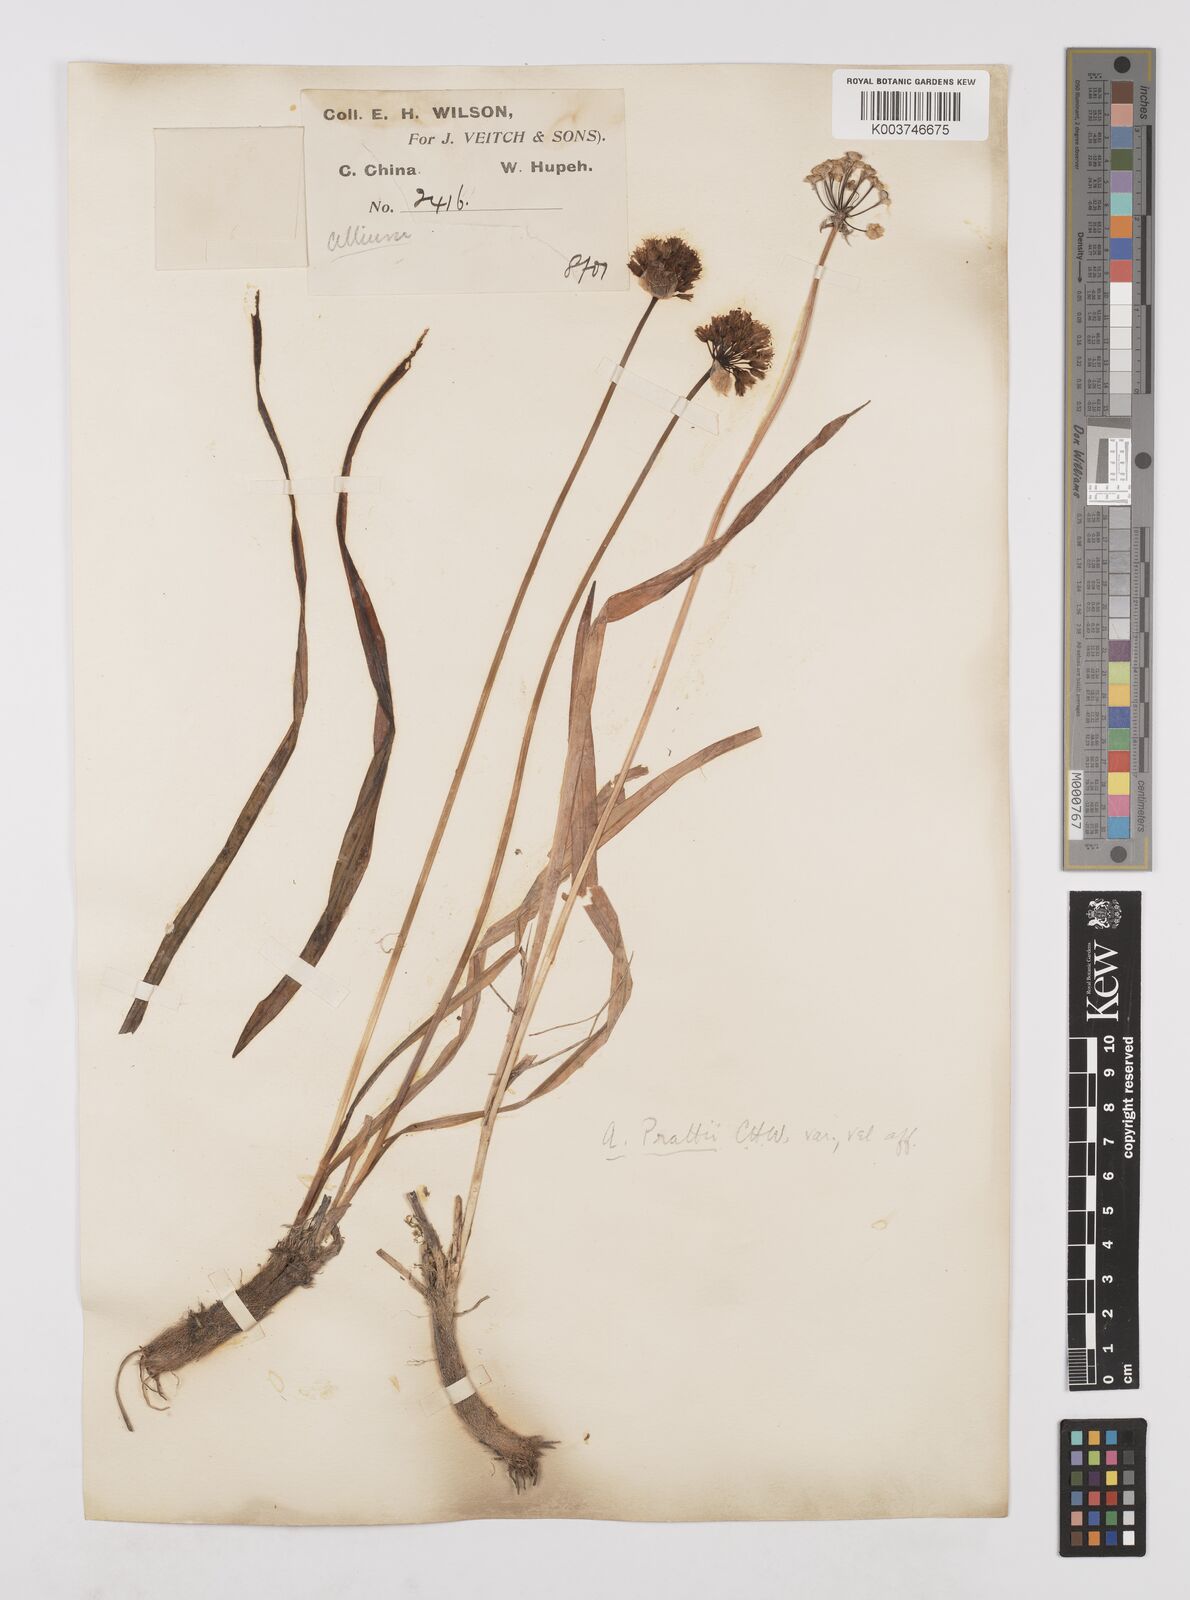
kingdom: Plantae
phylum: Tracheophyta
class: Liliopsida
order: Asparagales
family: Amaryllidaceae
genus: Allium
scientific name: Allium prattii
